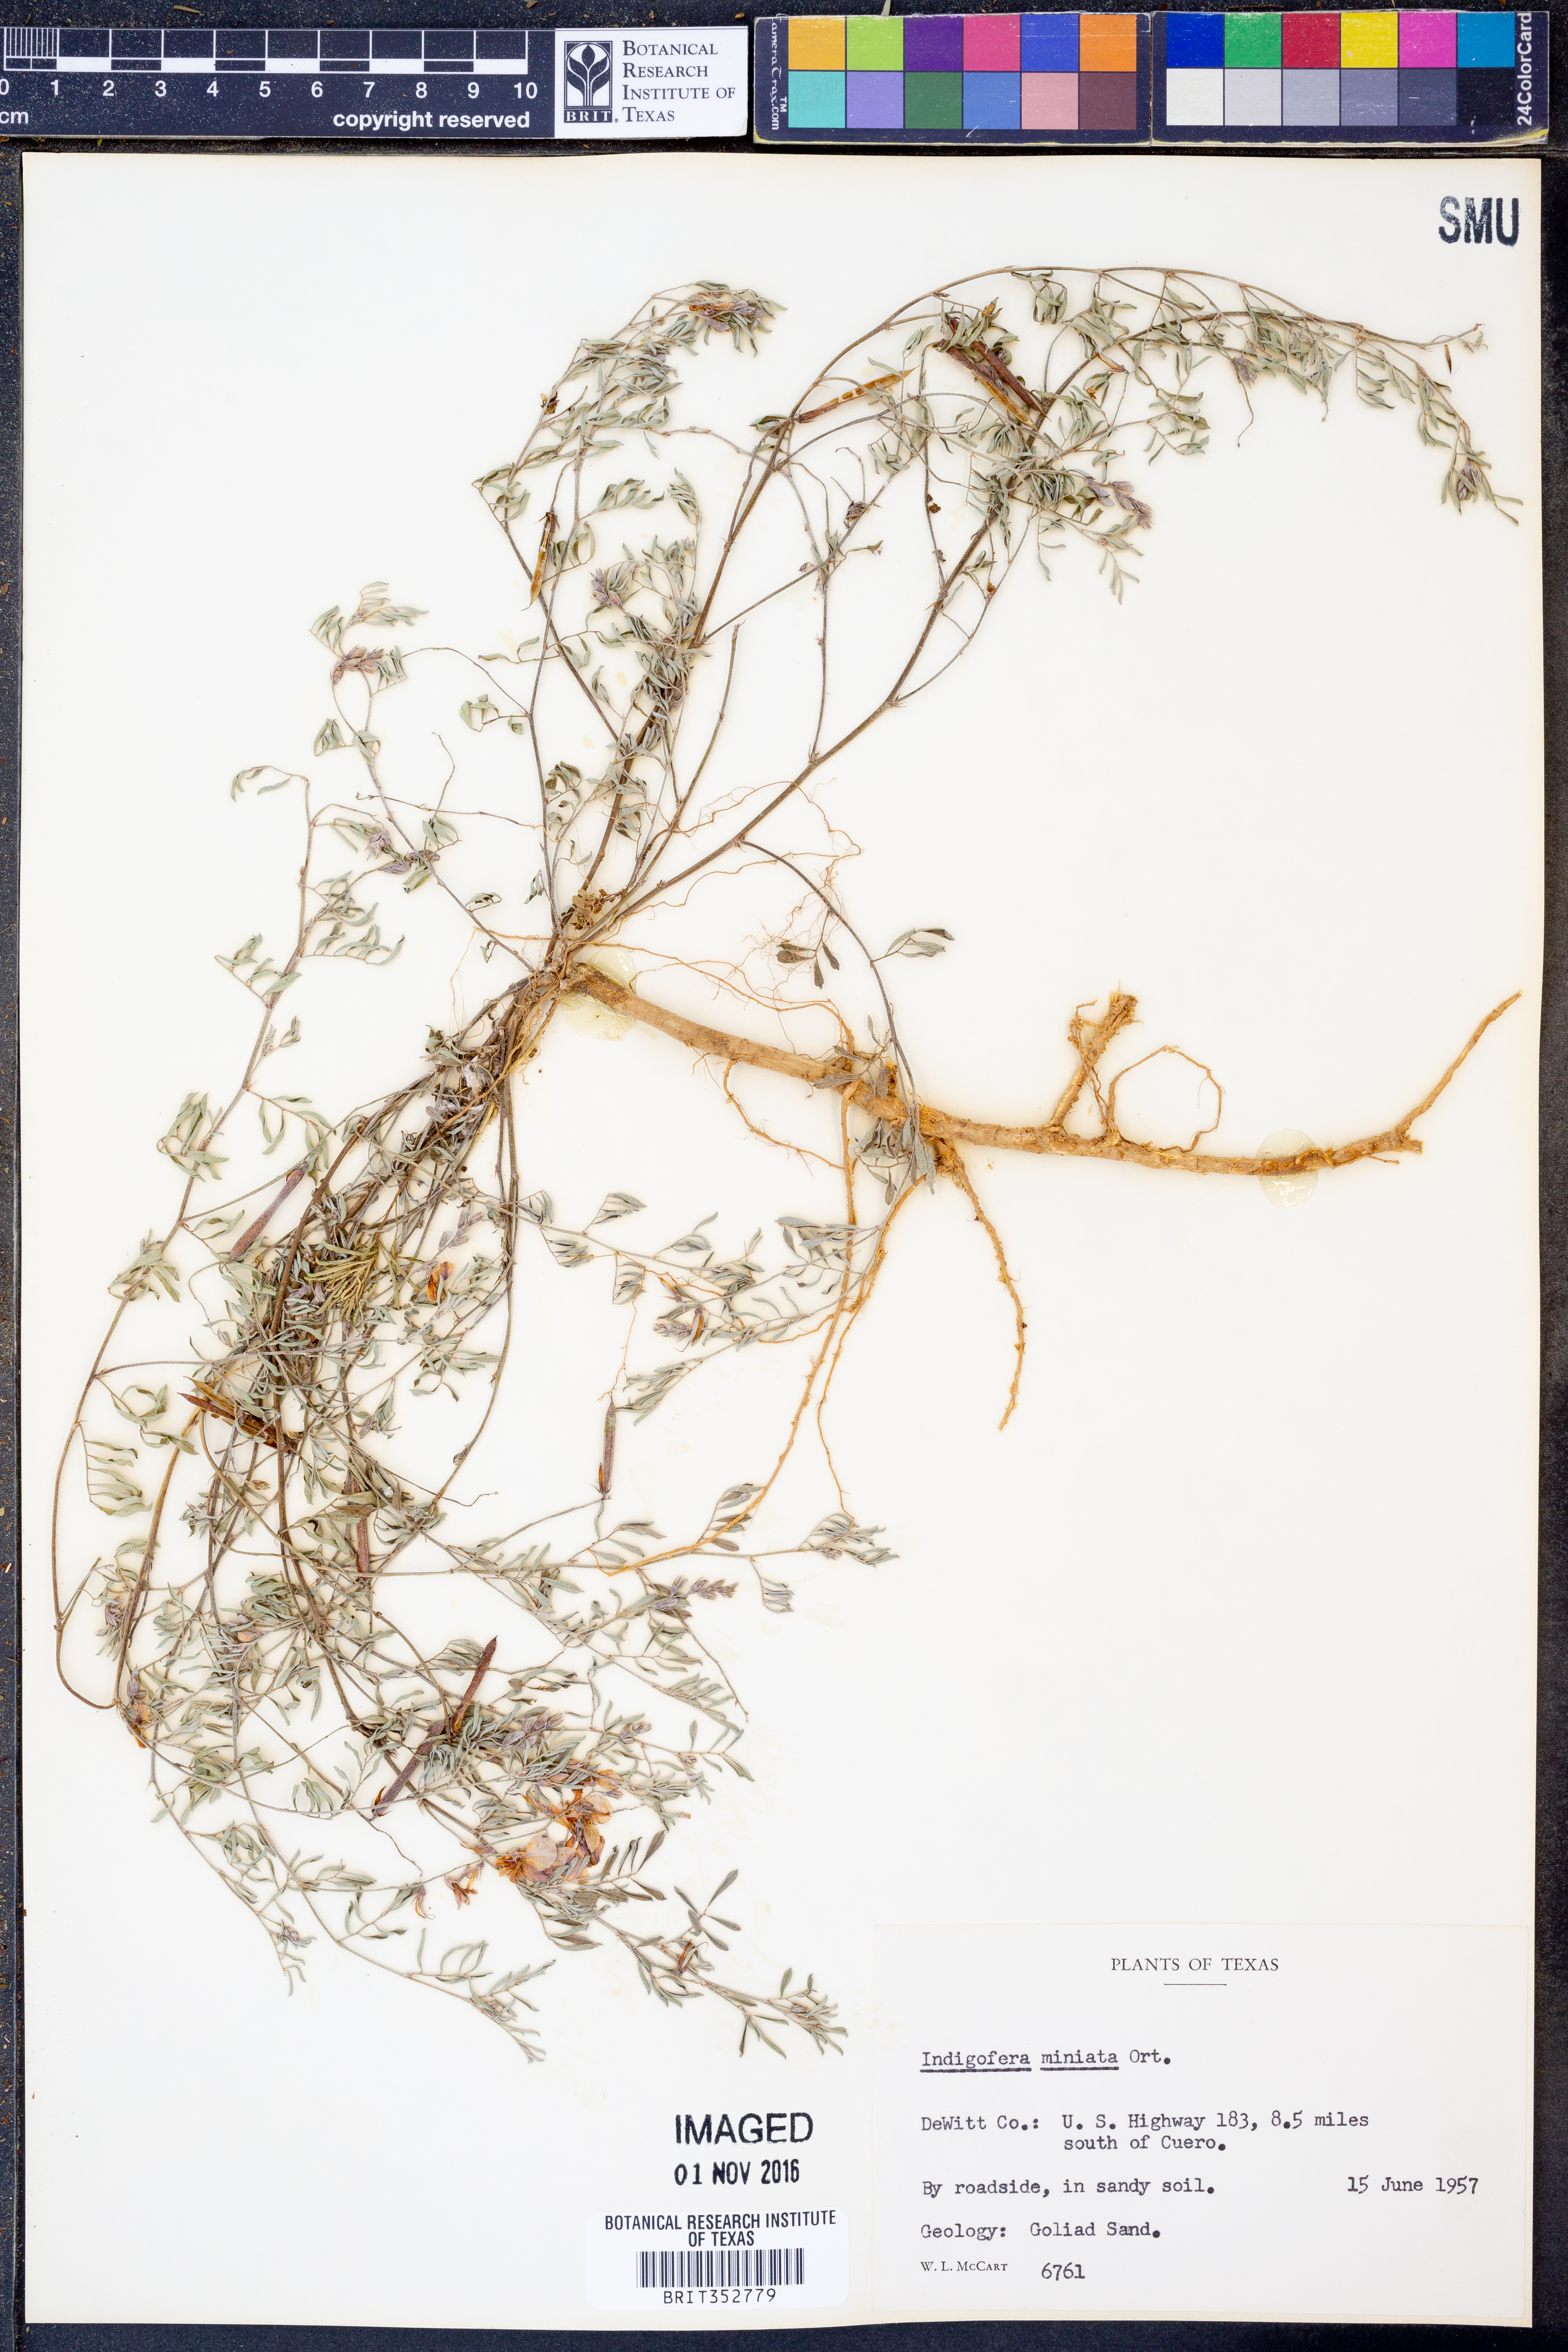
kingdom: Plantae
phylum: Tracheophyta
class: Magnoliopsida
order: Fabales
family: Fabaceae
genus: Indigofera
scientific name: Indigofera miniata
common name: Coast indigo
